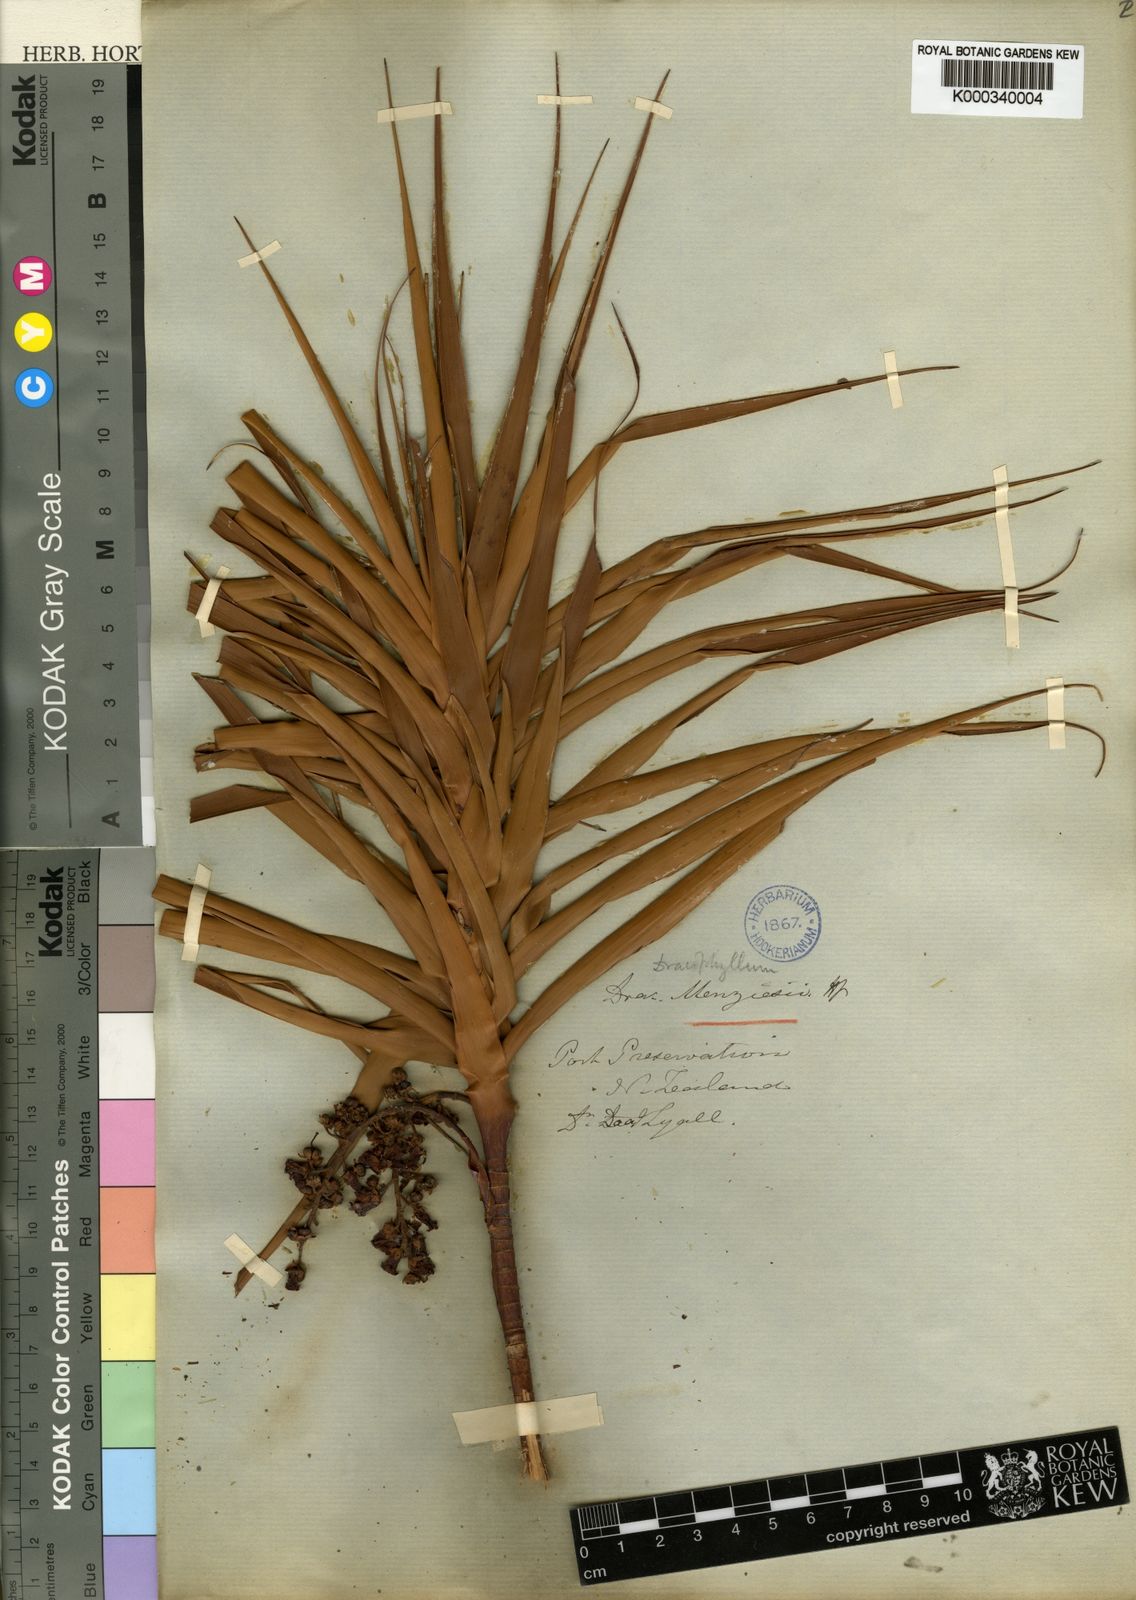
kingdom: Plantae
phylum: Tracheophyta
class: Magnoliopsida
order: Ericales
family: Ericaceae
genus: Dracophyllum
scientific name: Dracophyllum menziesii
